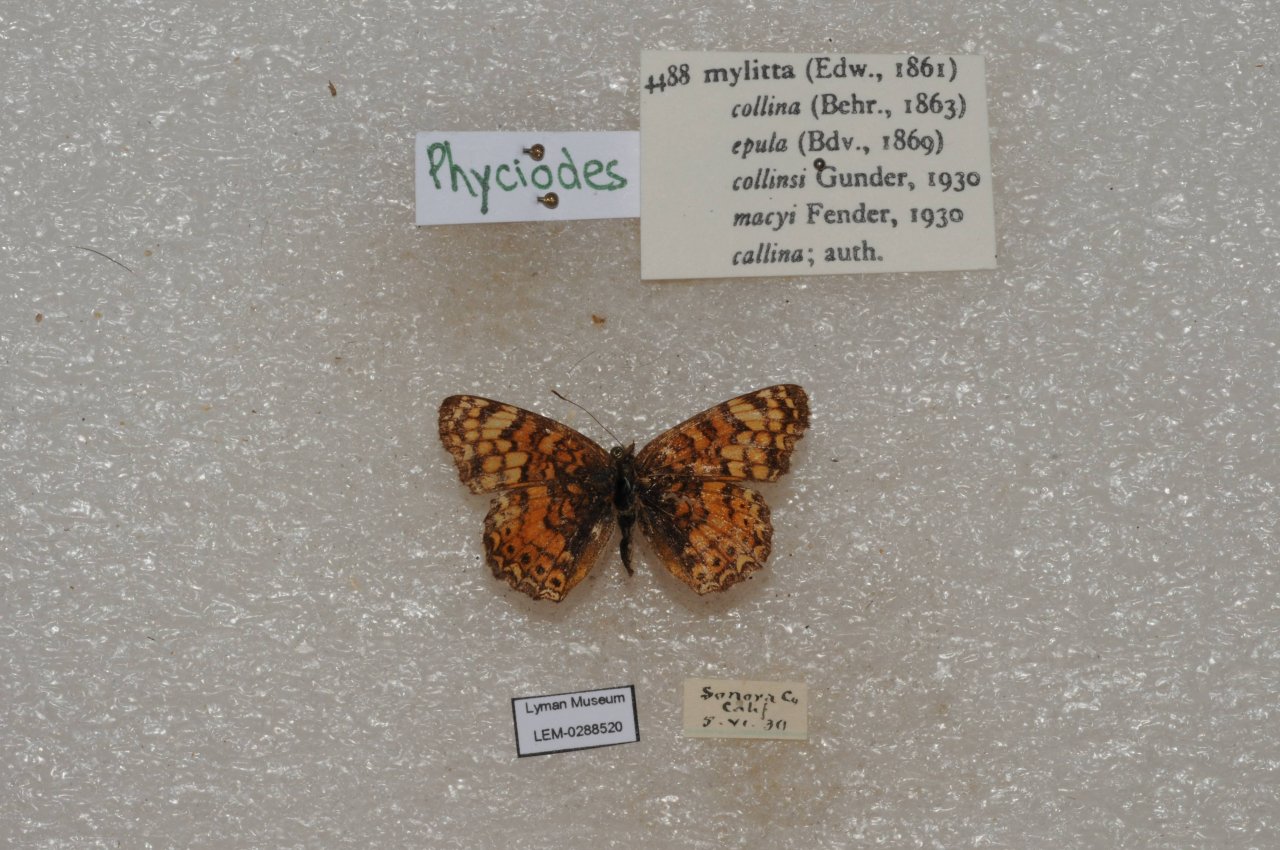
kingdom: Animalia
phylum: Arthropoda
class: Insecta
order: Lepidoptera
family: Nymphalidae
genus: Eresia
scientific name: Eresia aveyrona
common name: Mylitta Crescent
